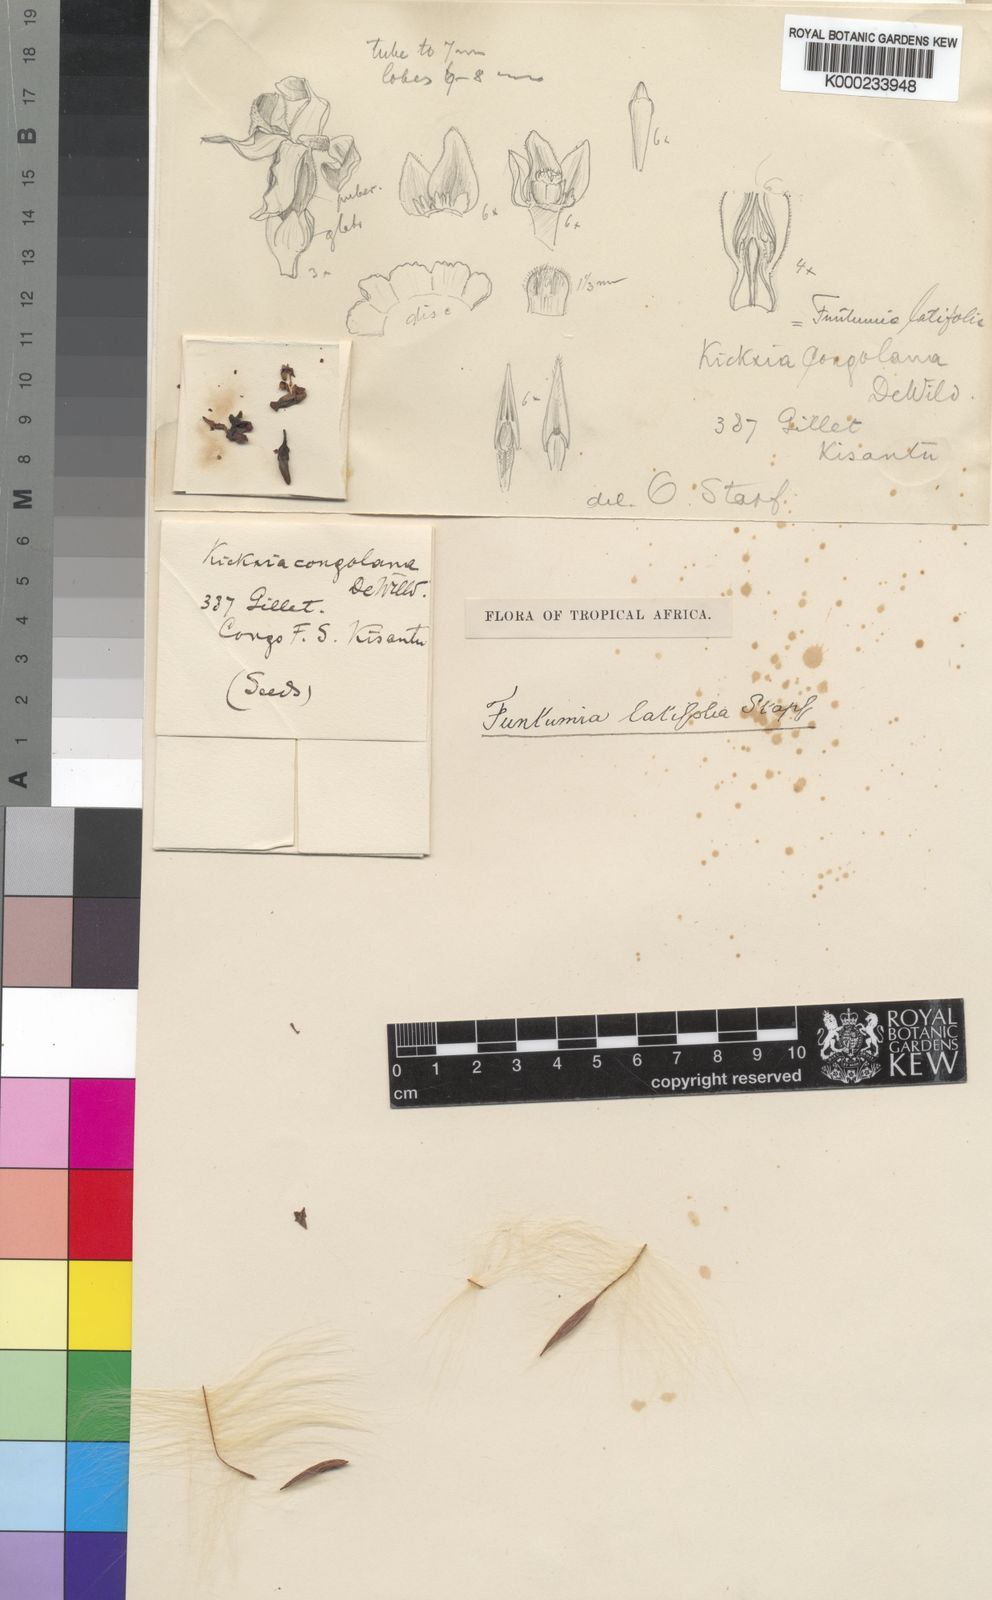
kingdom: Plantae
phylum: Tracheophyta
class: Magnoliopsida
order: Gentianales
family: Apocynaceae
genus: Funtumia
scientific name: Funtumia africana
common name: Lagos-rubber
